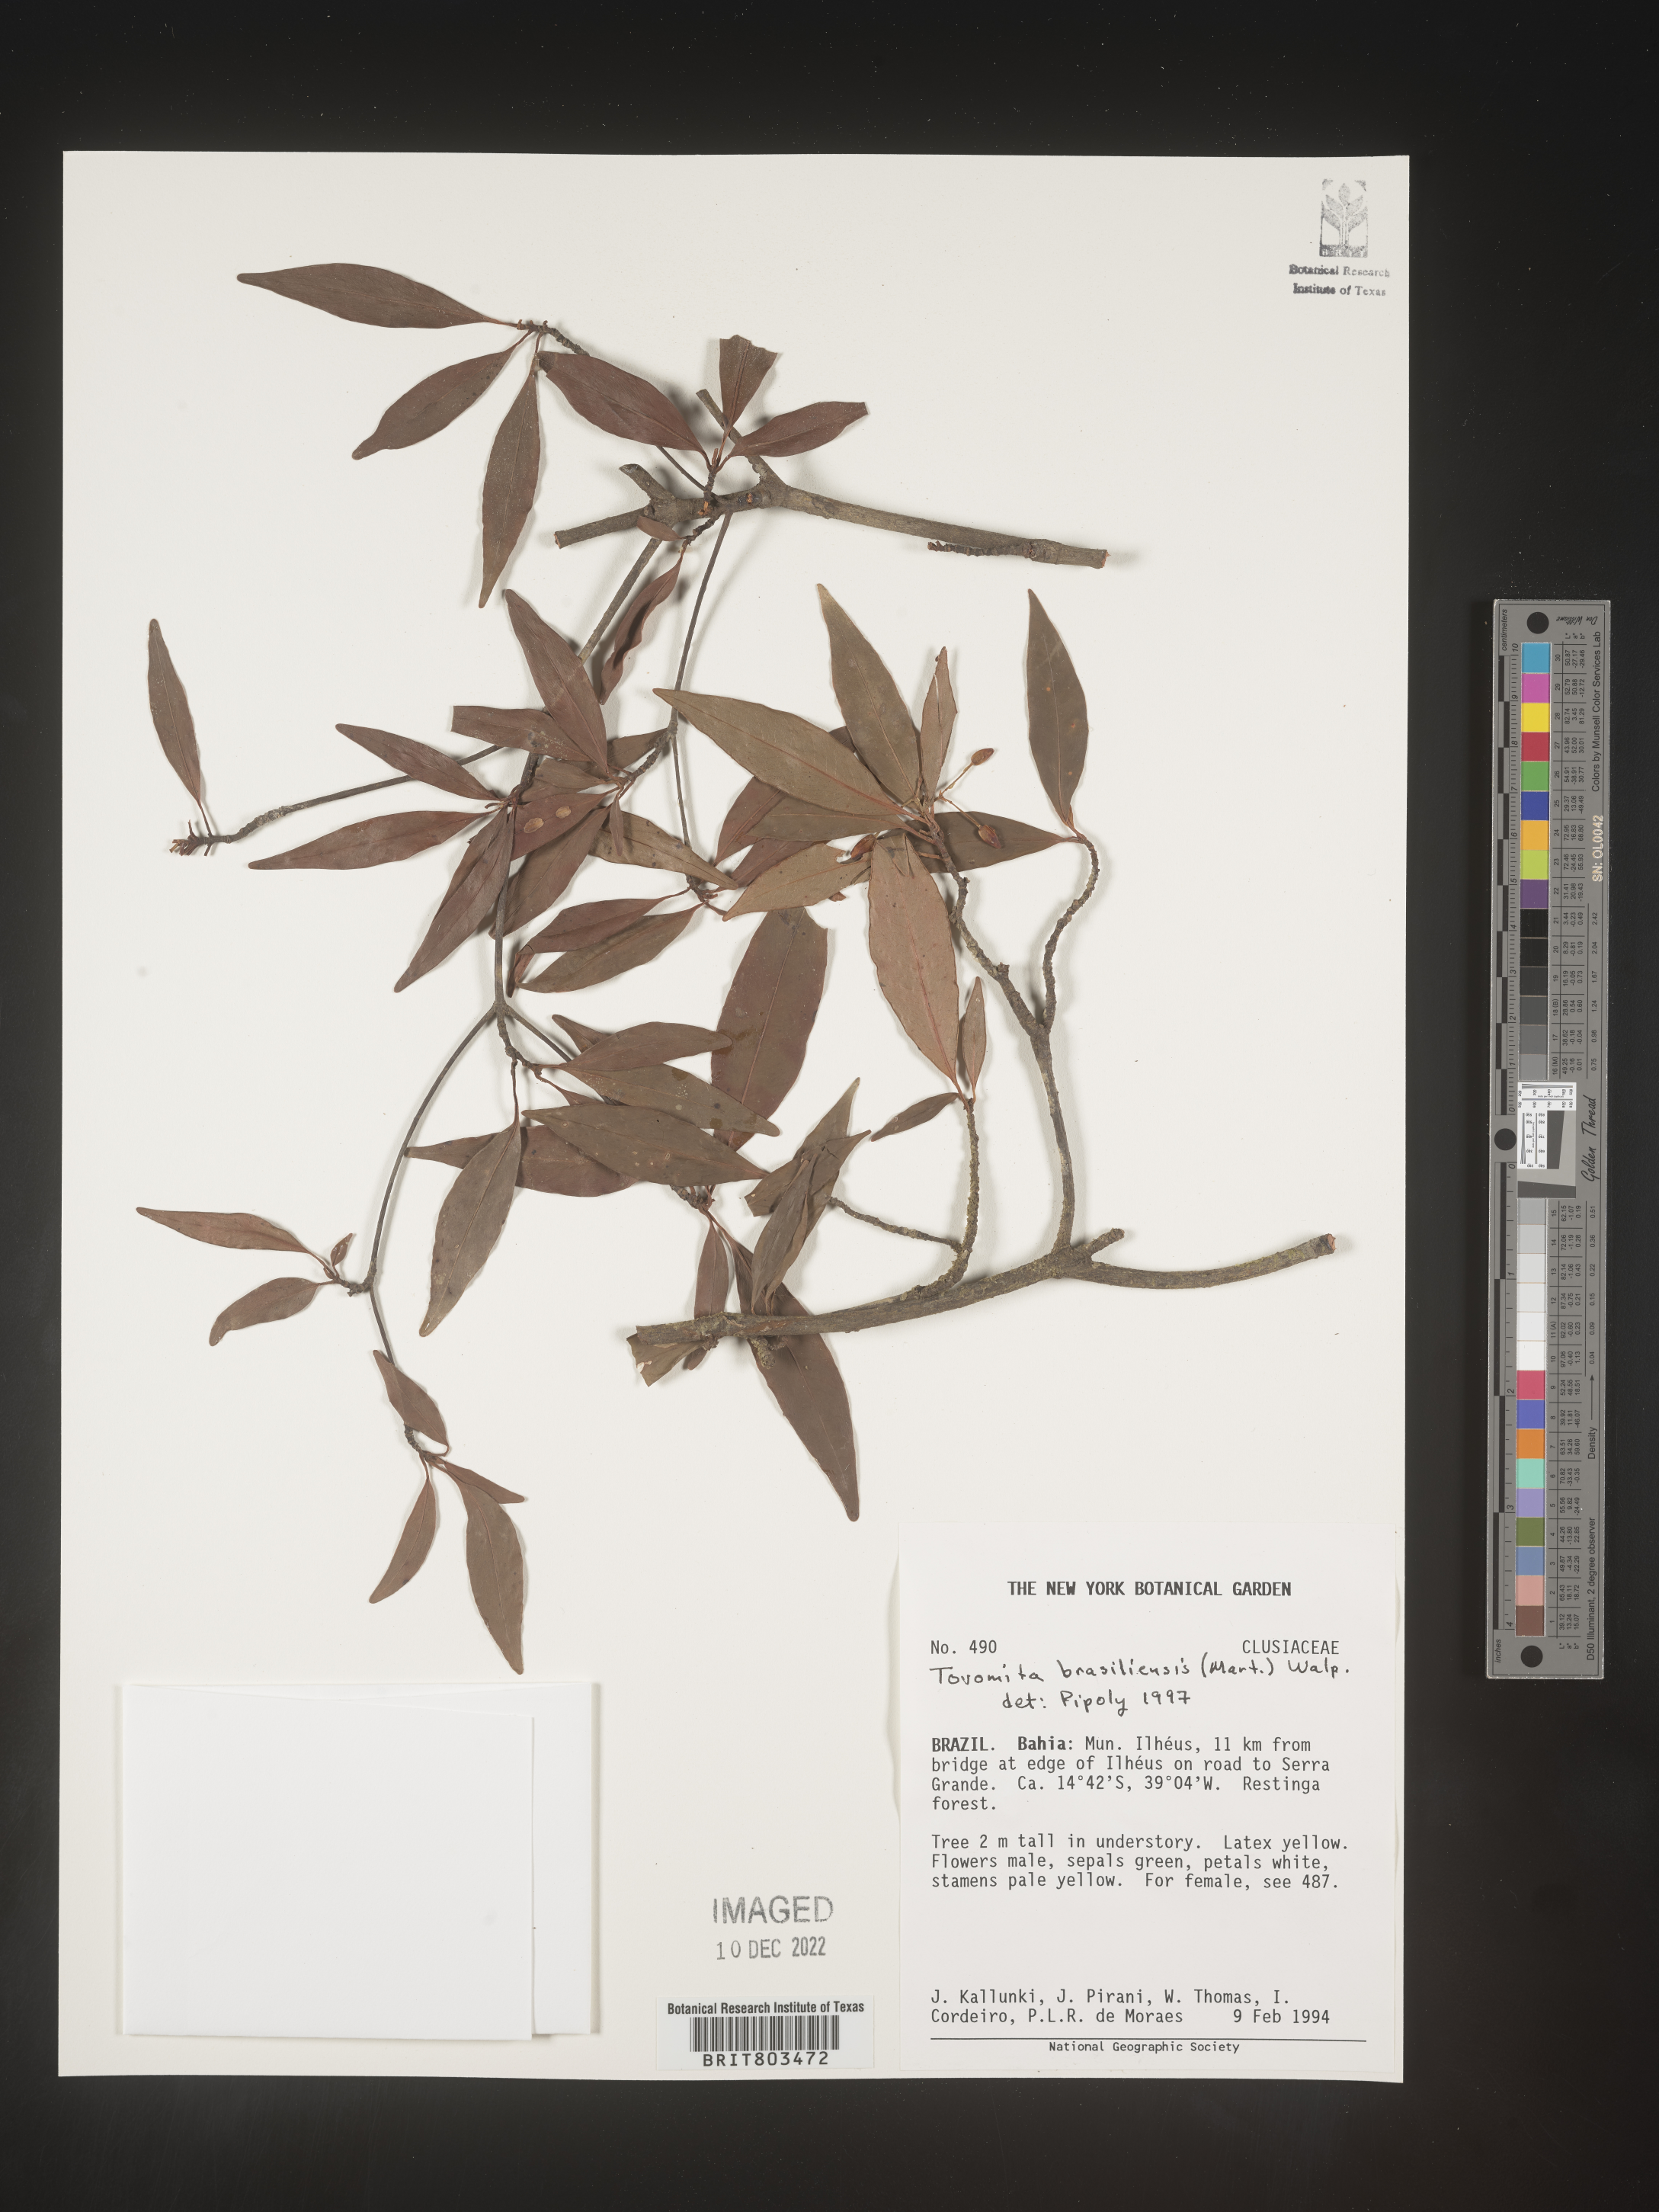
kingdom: Plantae
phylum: Tracheophyta
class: Magnoliopsida
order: Malpighiales
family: Clusiaceae
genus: Tovomita
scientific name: Tovomita
